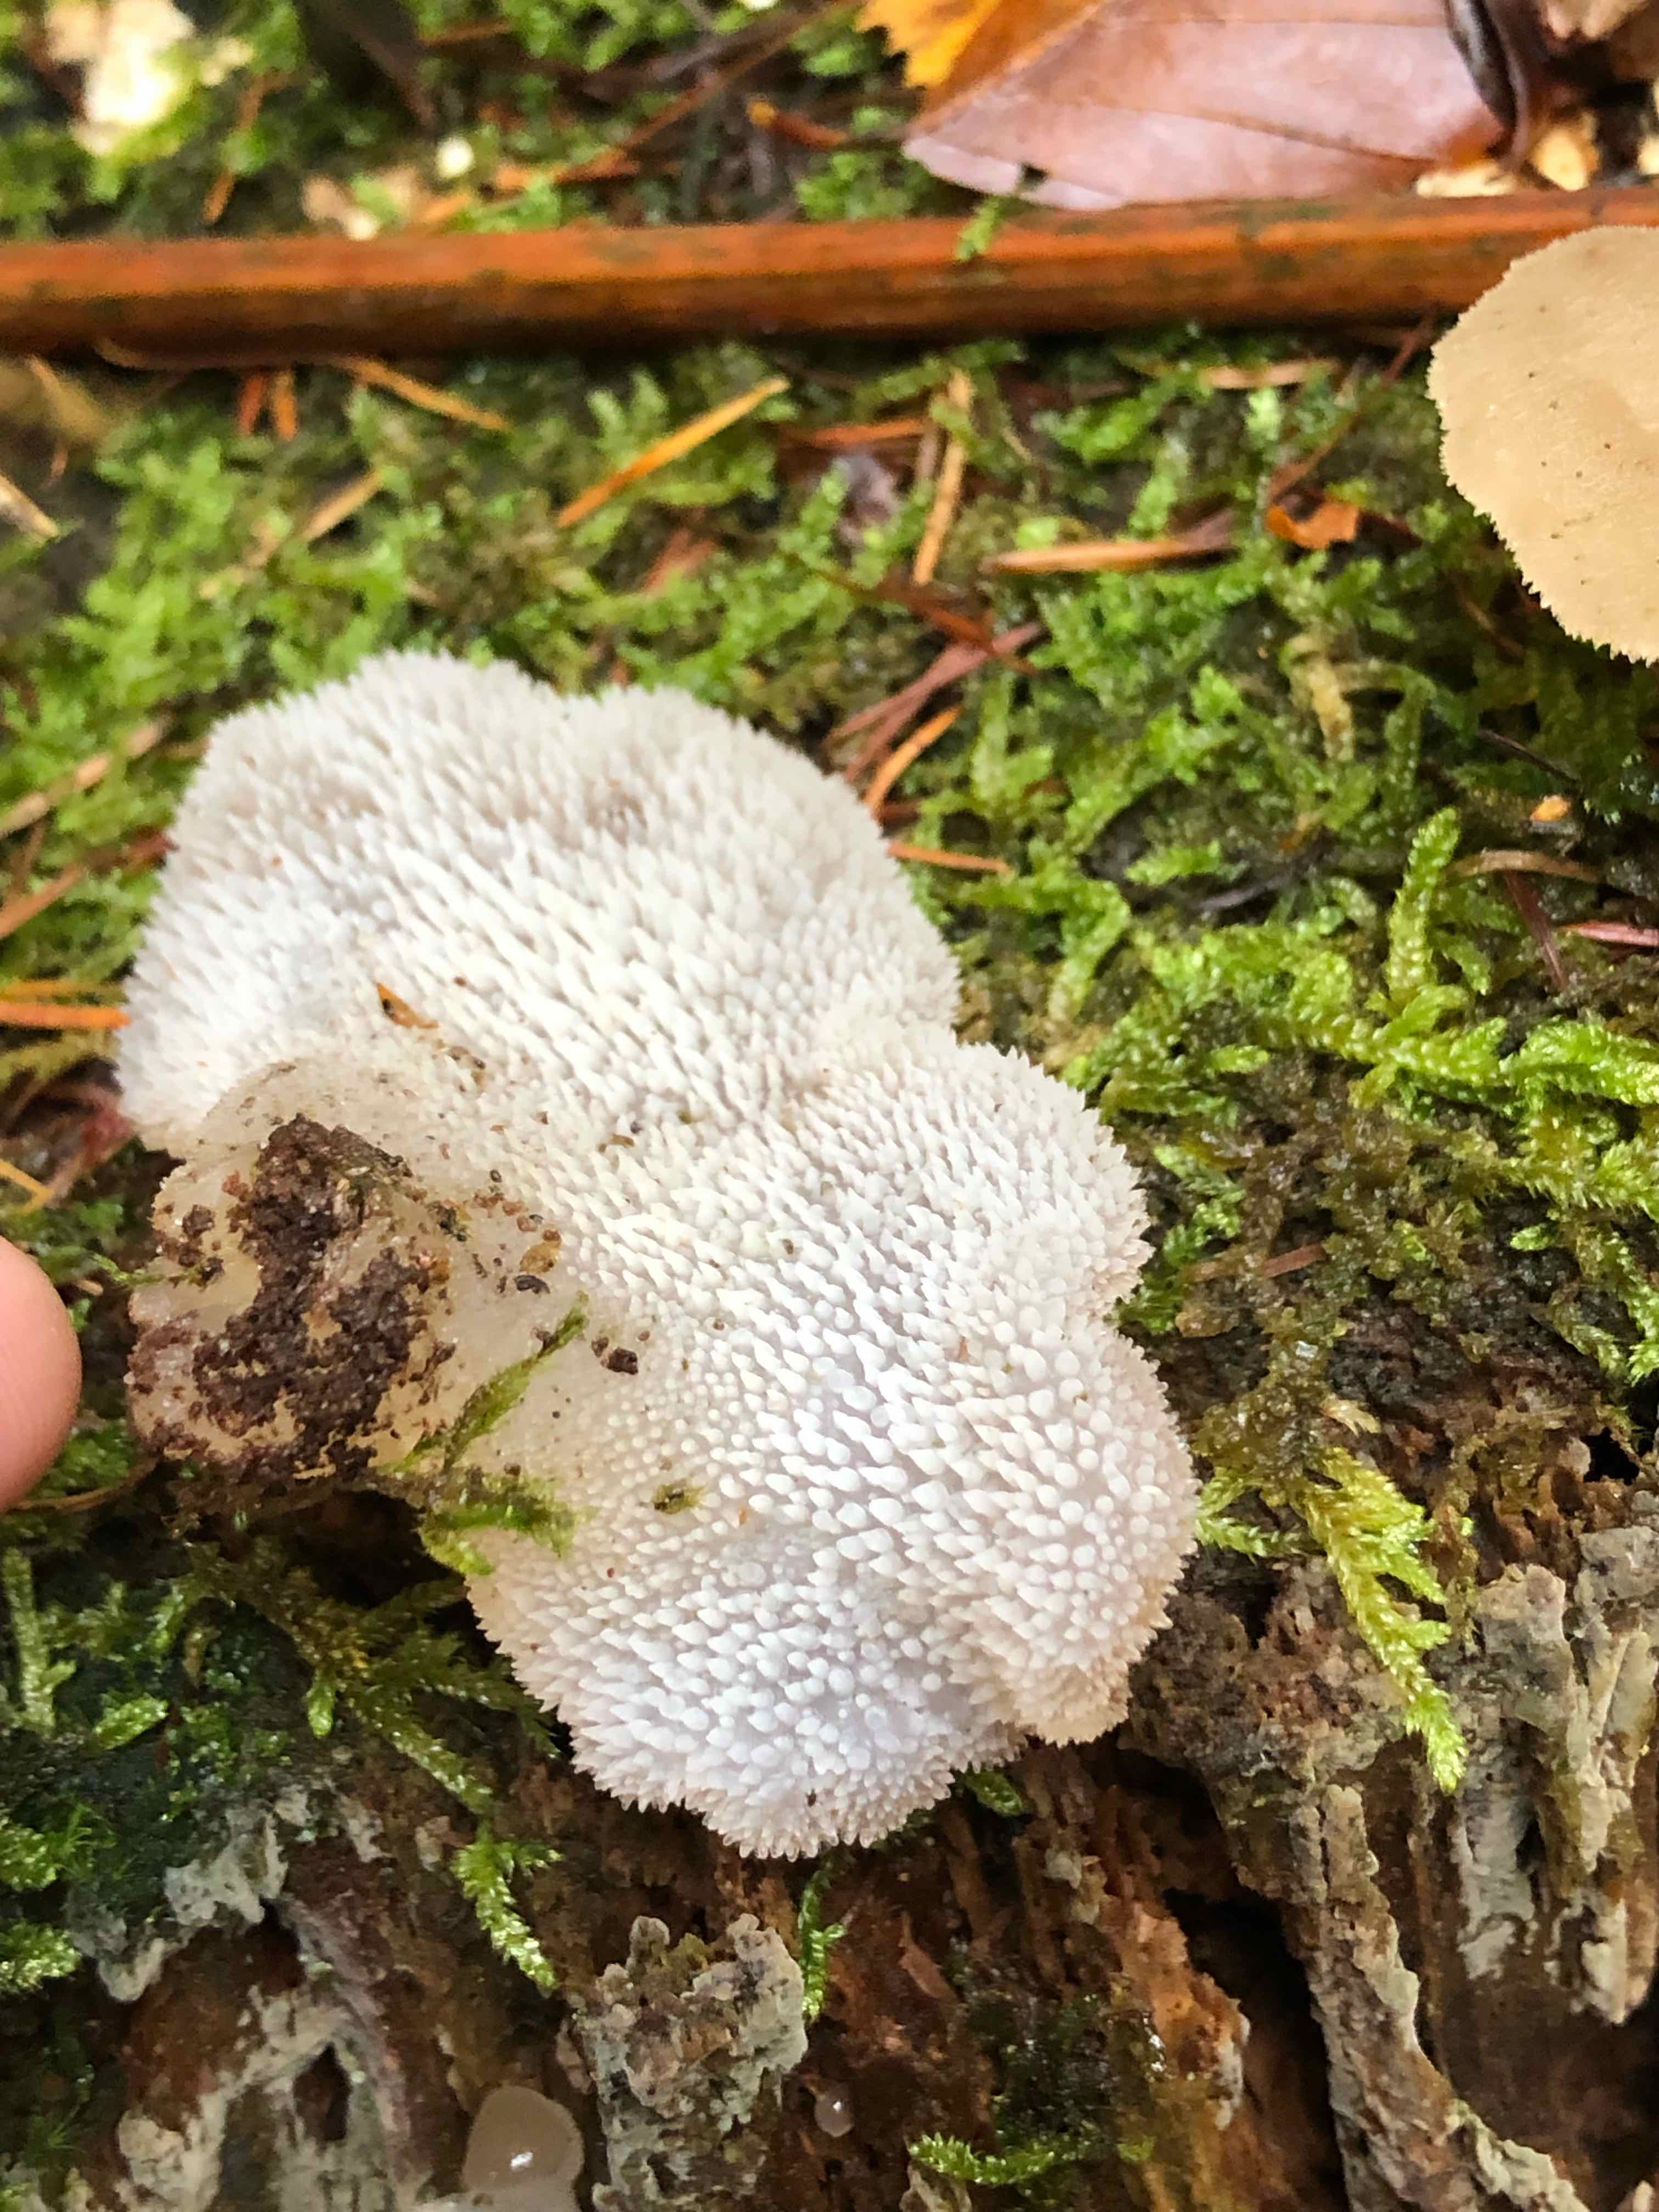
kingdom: Fungi
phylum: Basidiomycota
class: Agaricomycetes
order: Auriculariales
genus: Pseudohydnum
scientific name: Pseudohydnum gelatinosum
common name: bævretand
